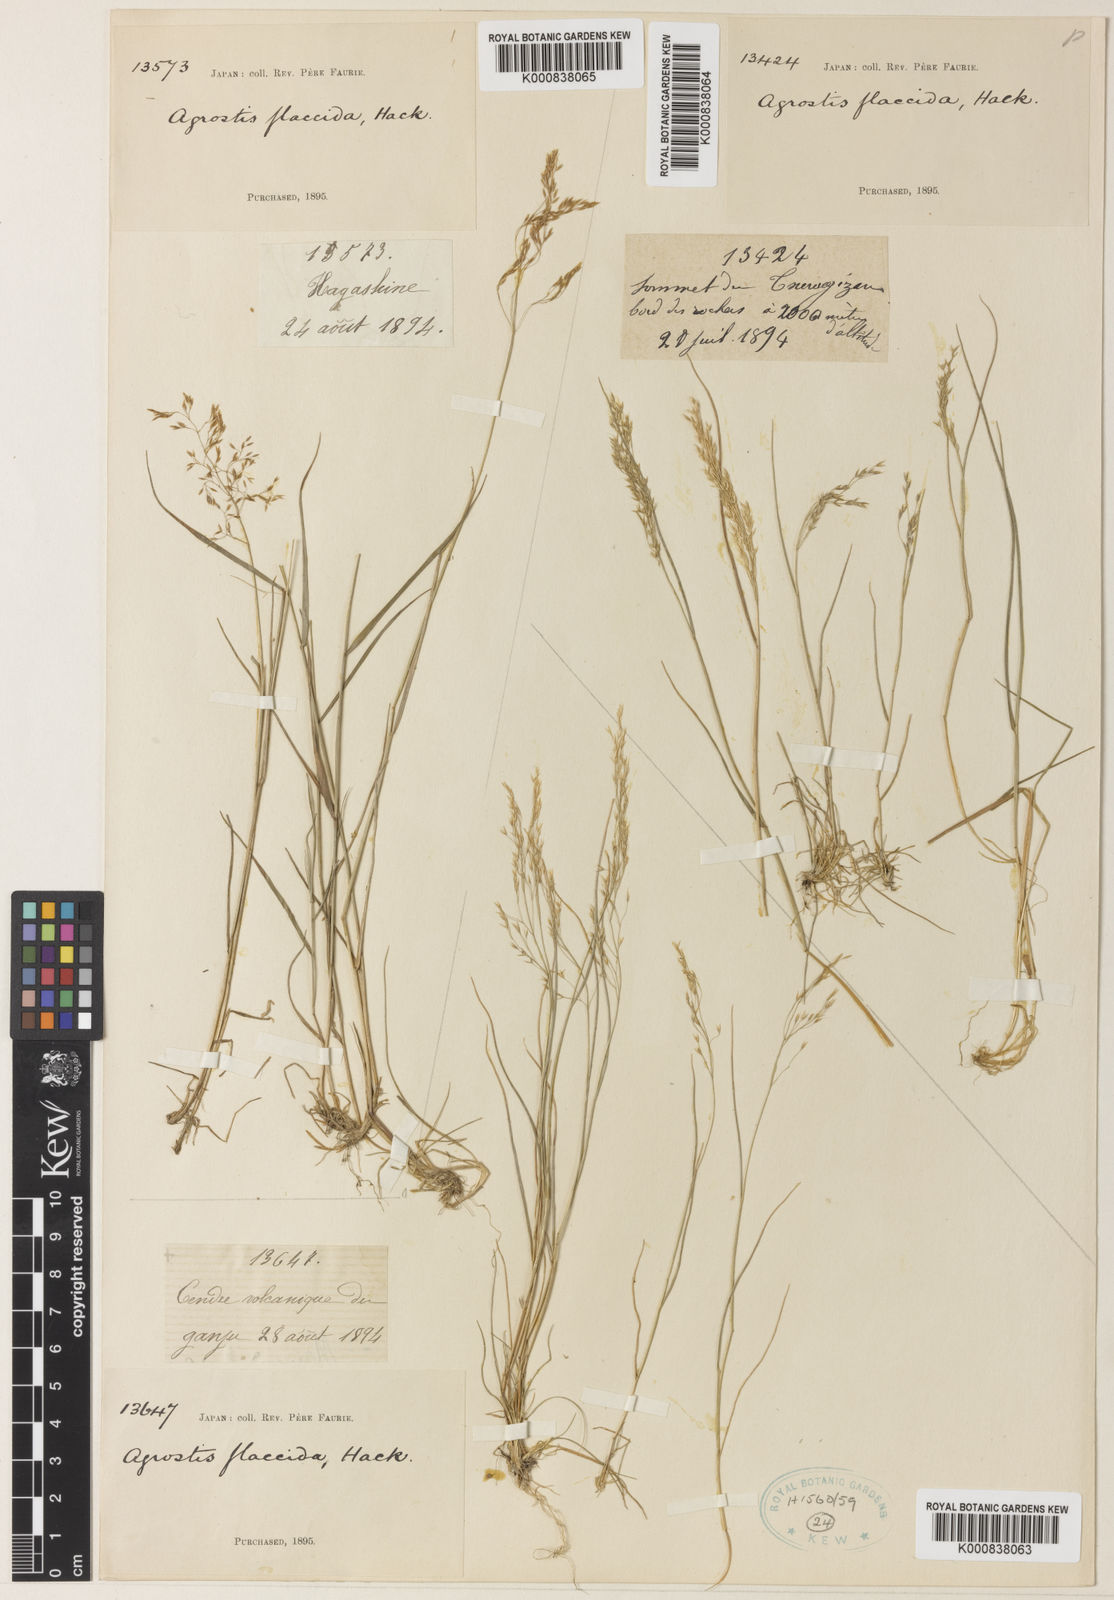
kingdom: Plantae
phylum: Tracheophyta
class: Liliopsida
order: Poales
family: Poaceae
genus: Agrostis
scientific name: Agrostis flaccida
